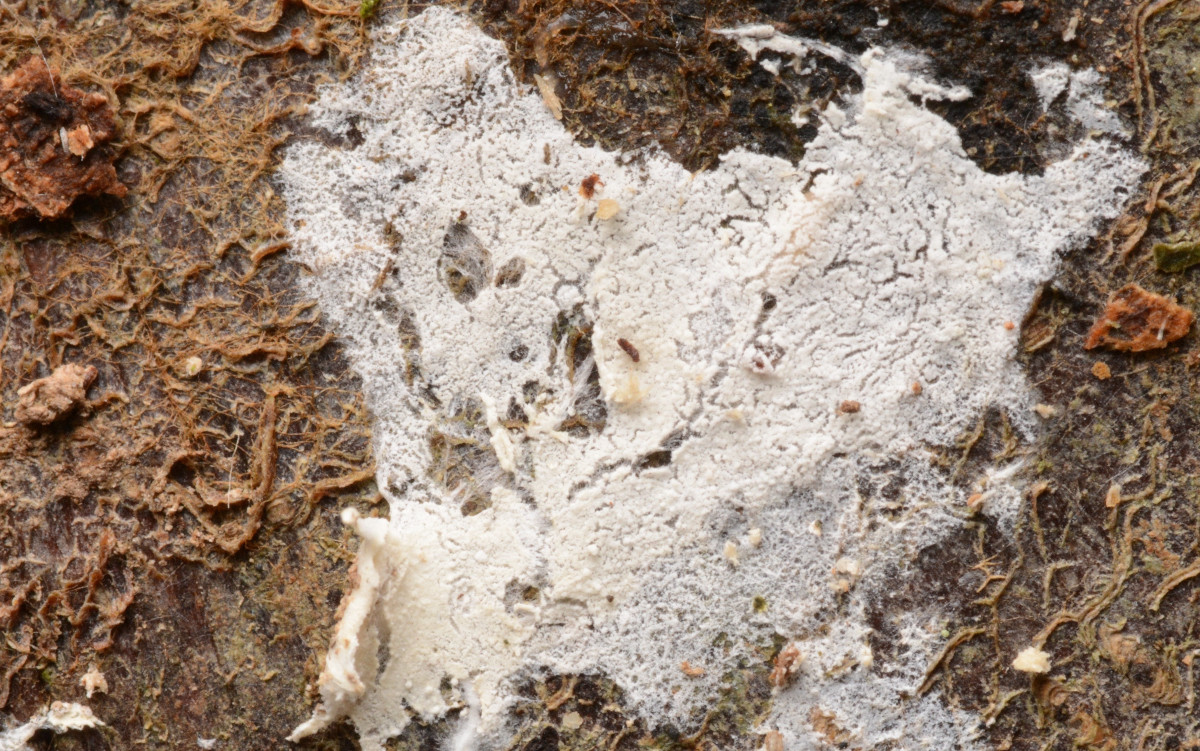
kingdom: Fungi
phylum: Basidiomycota
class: Agaricomycetes
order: Corticiales
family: Corticiaceae
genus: Corticium
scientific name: Corticium confine
